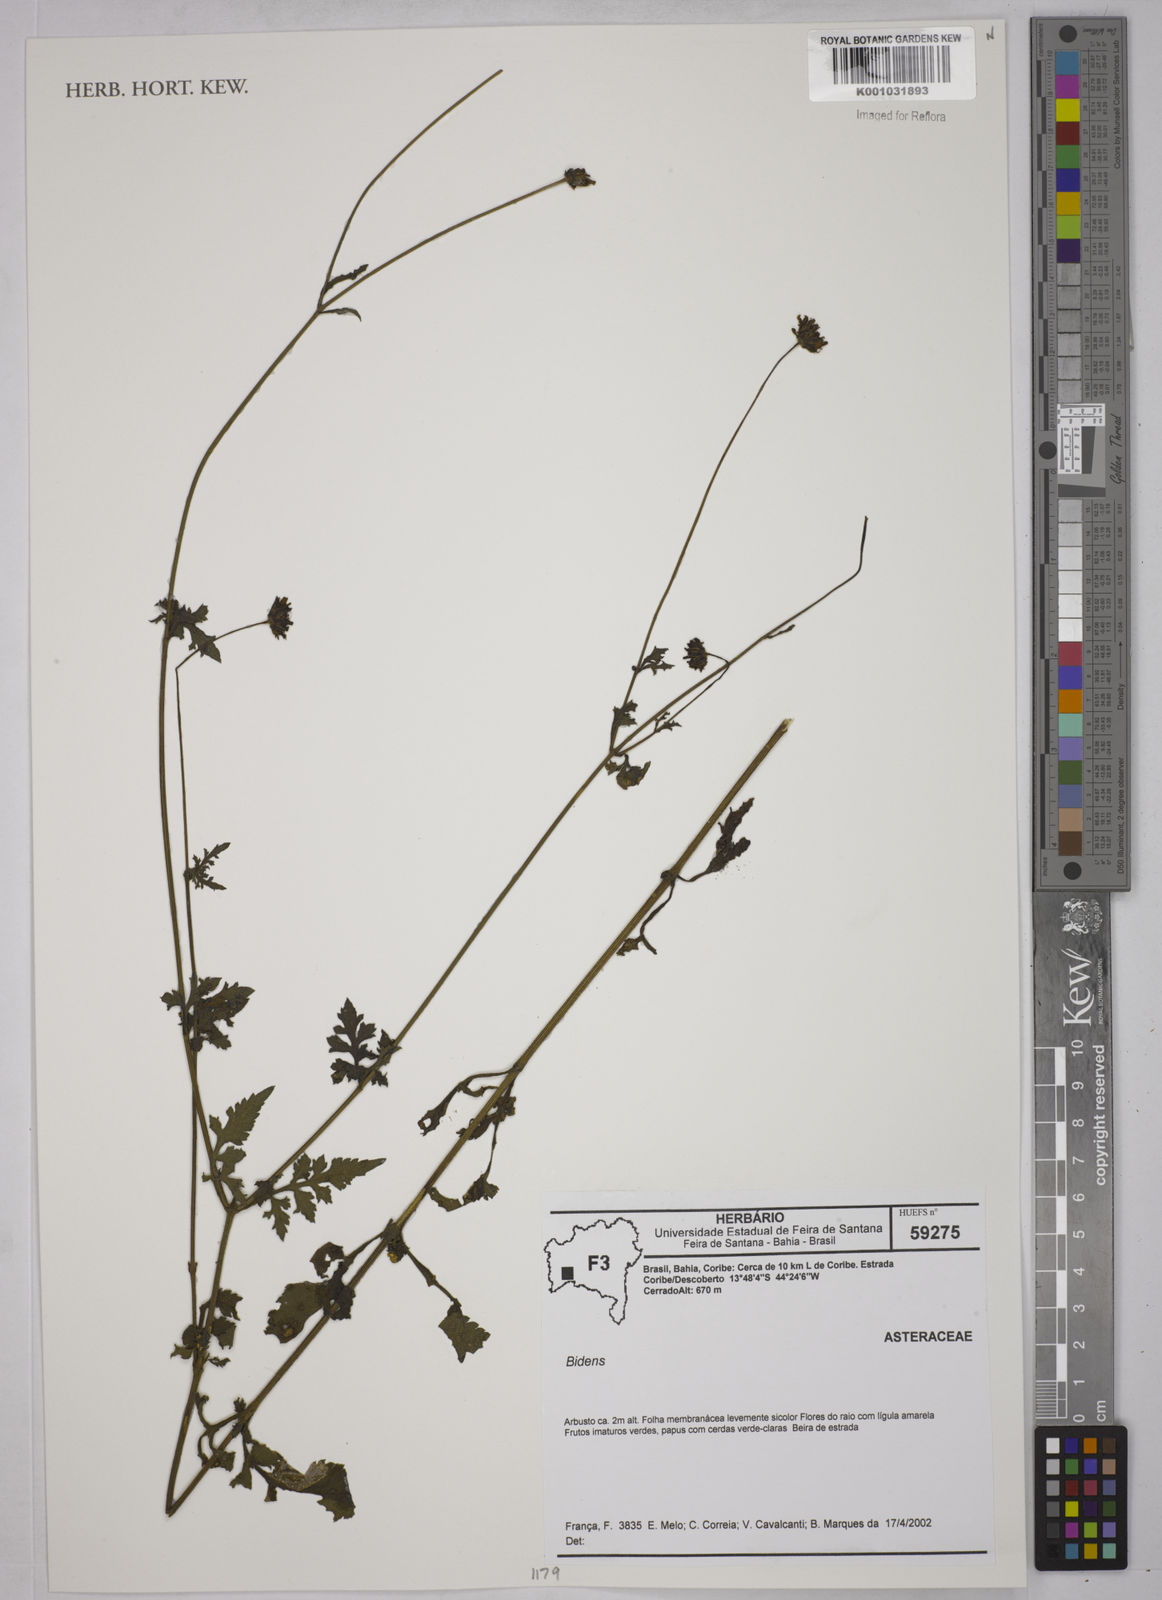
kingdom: Plantae
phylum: Tracheophyta
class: Magnoliopsida
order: Asterales
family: Asteraceae
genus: Bidens
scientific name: Bidens
